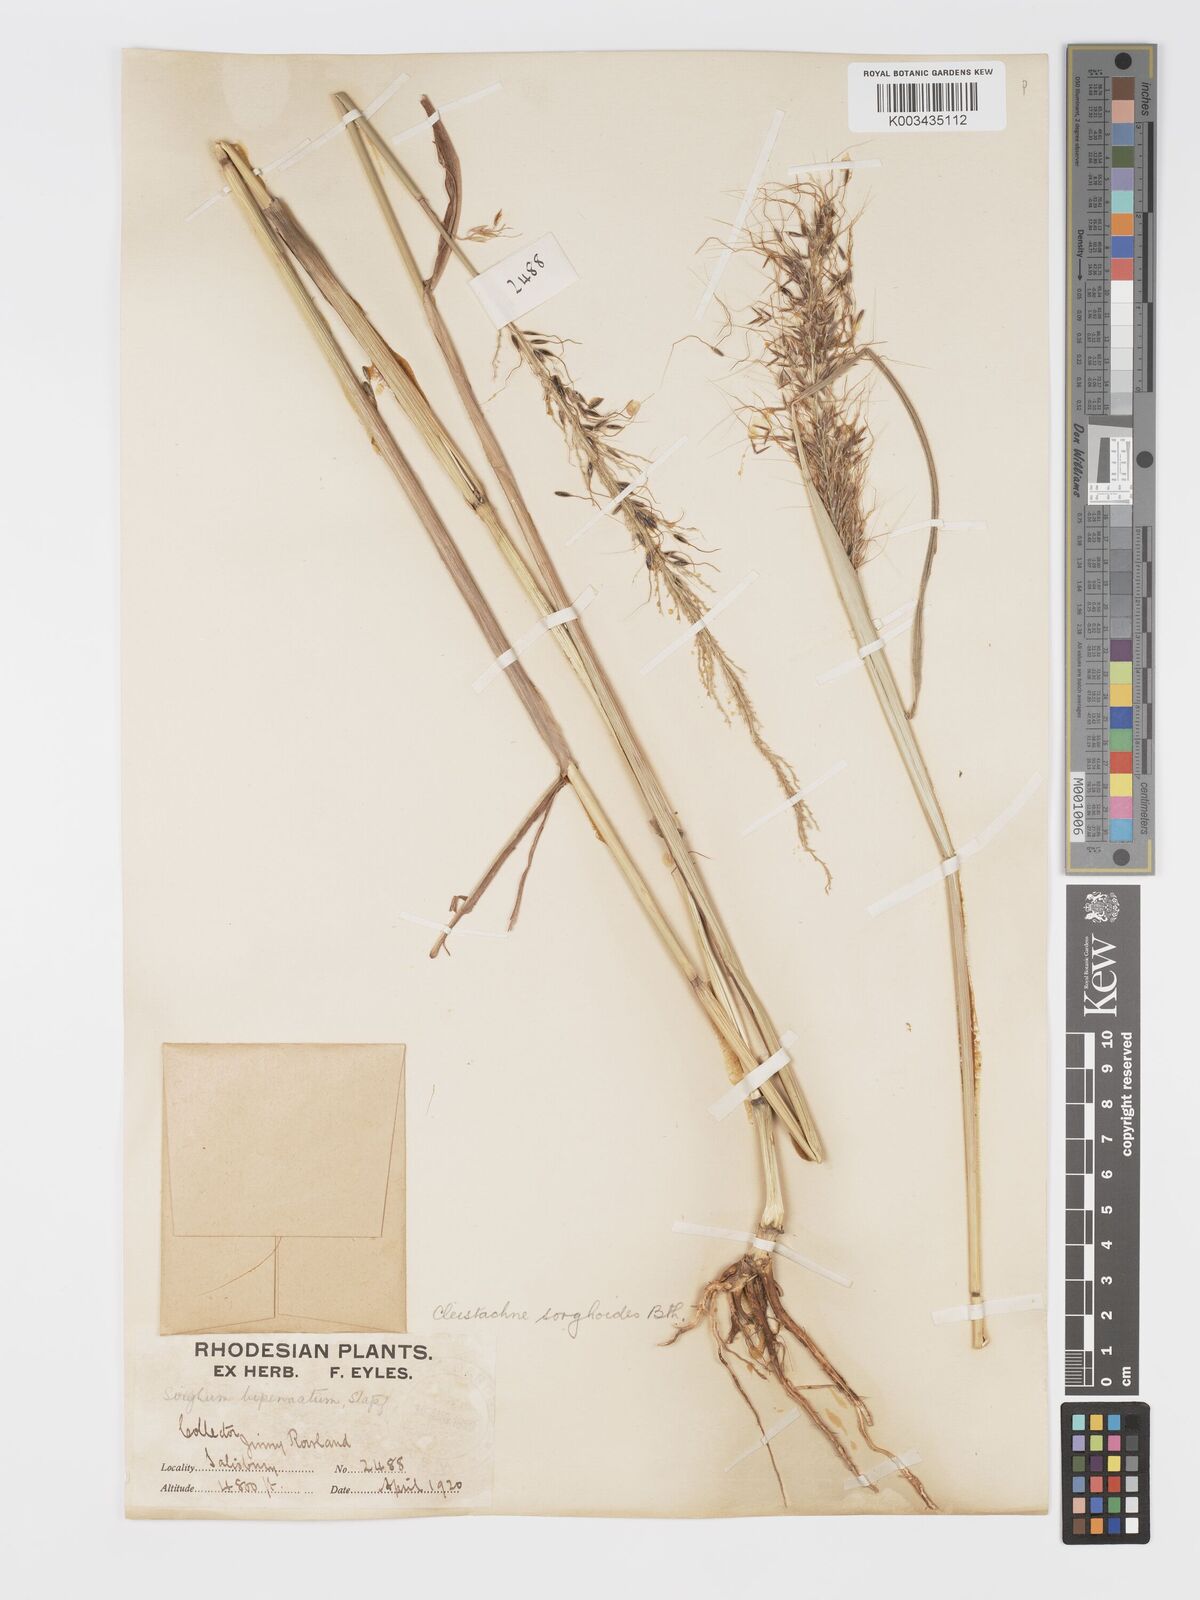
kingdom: Plantae
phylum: Tracheophyta
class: Liliopsida
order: Poales
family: Poaceae
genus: Cleistachne
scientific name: Cleistachne sorghoides
